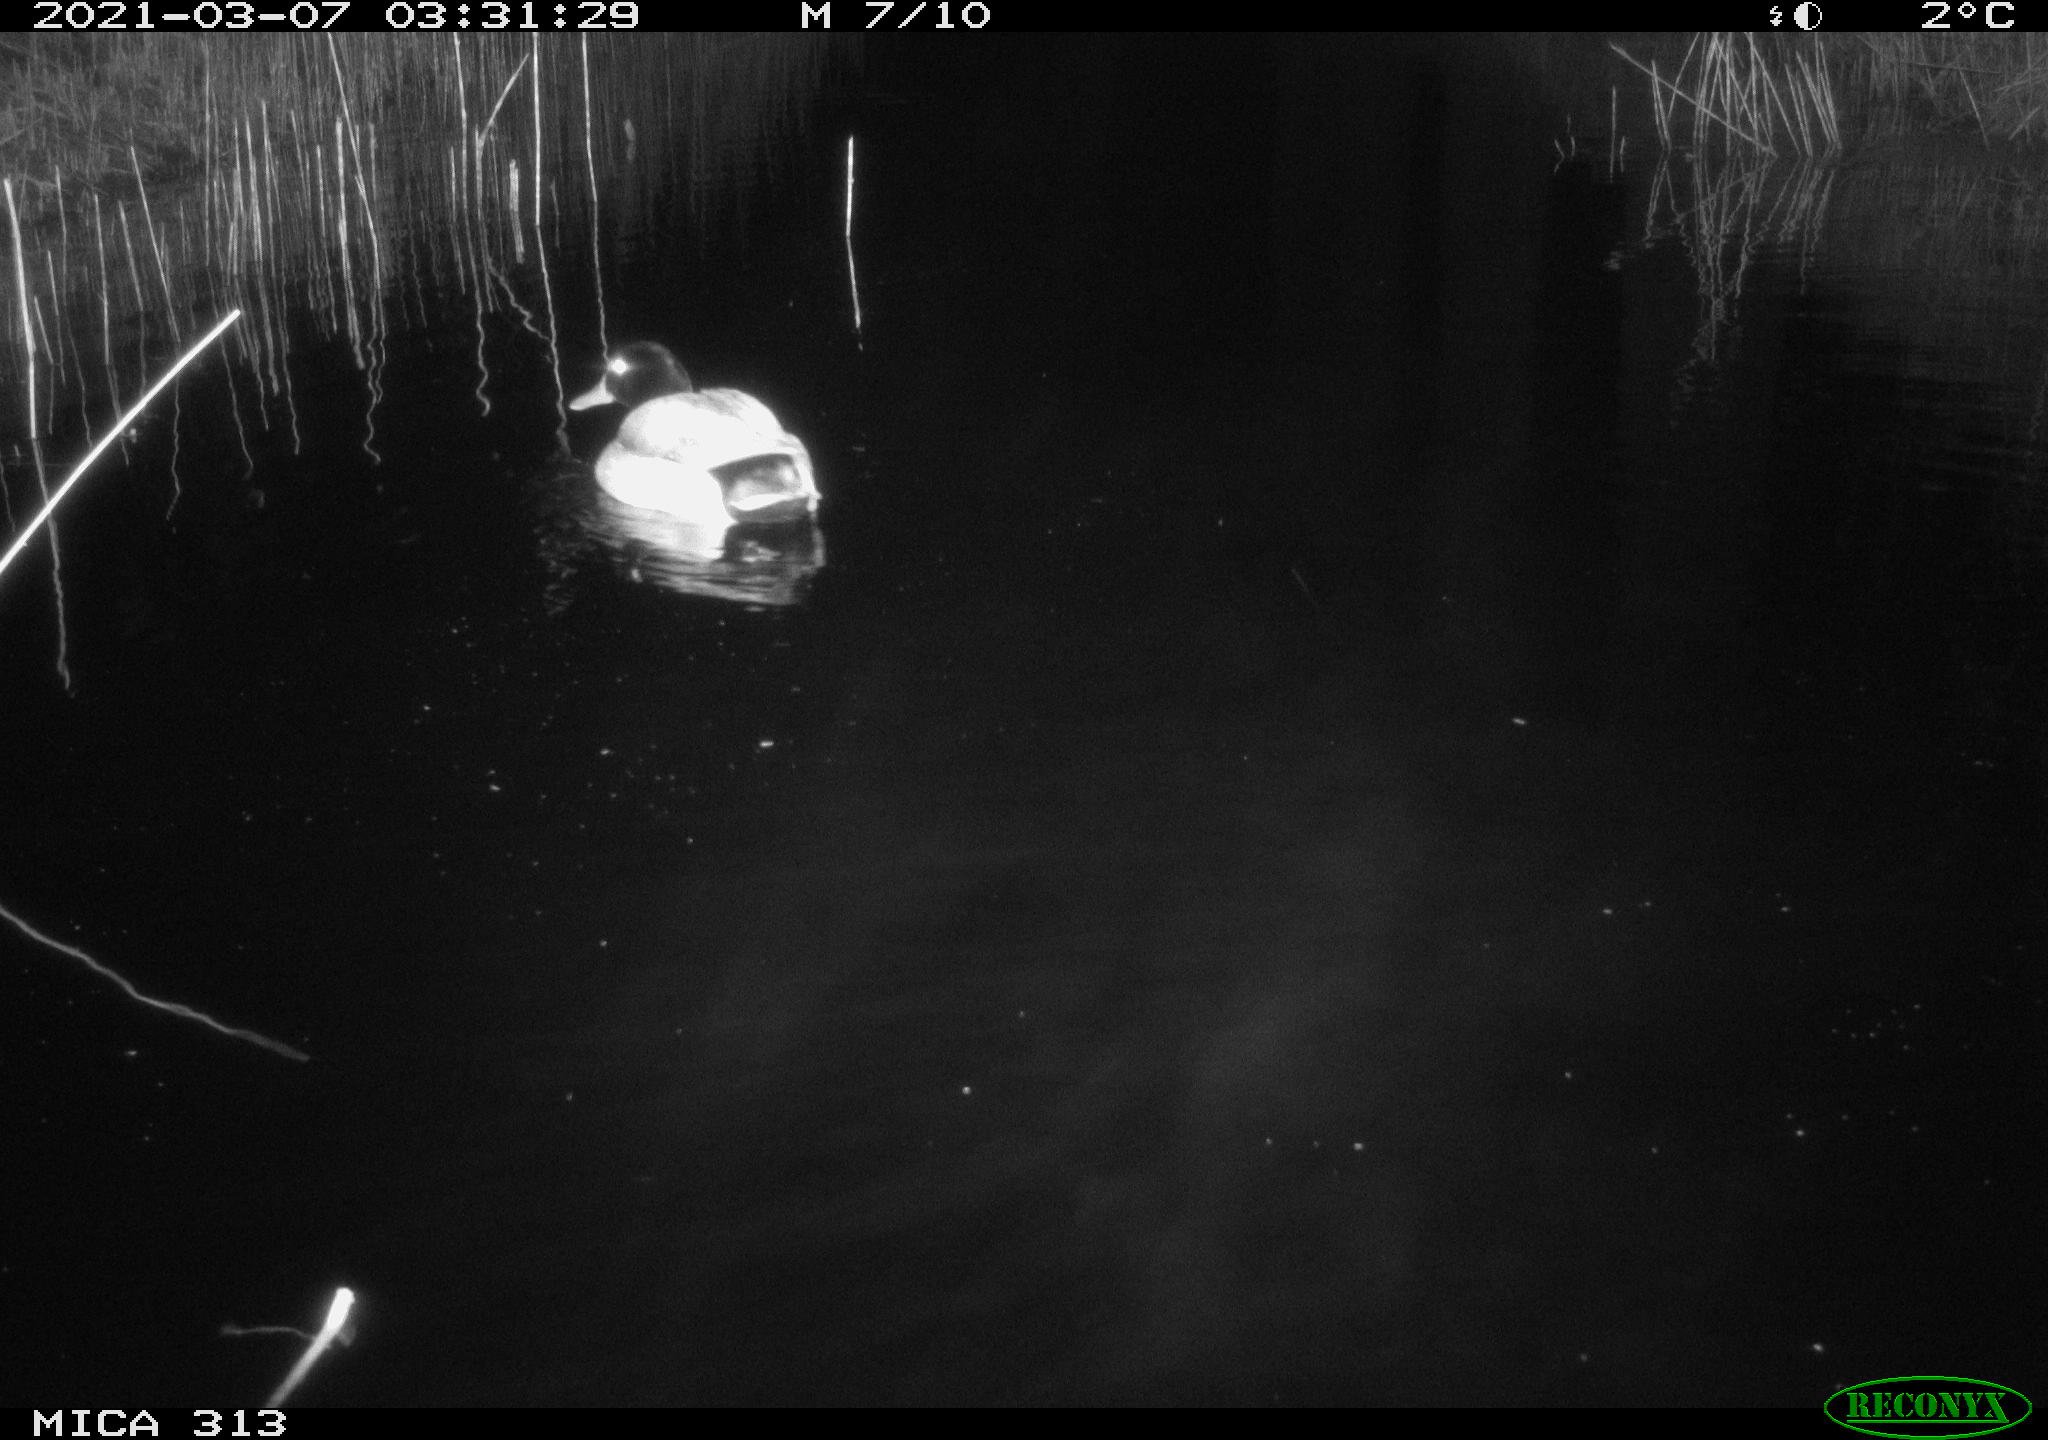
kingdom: Animalia
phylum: Chordata
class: Aves
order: Anseriformes
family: Anatidae
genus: Anas
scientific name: Anas platyrhynchos
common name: Mallard
